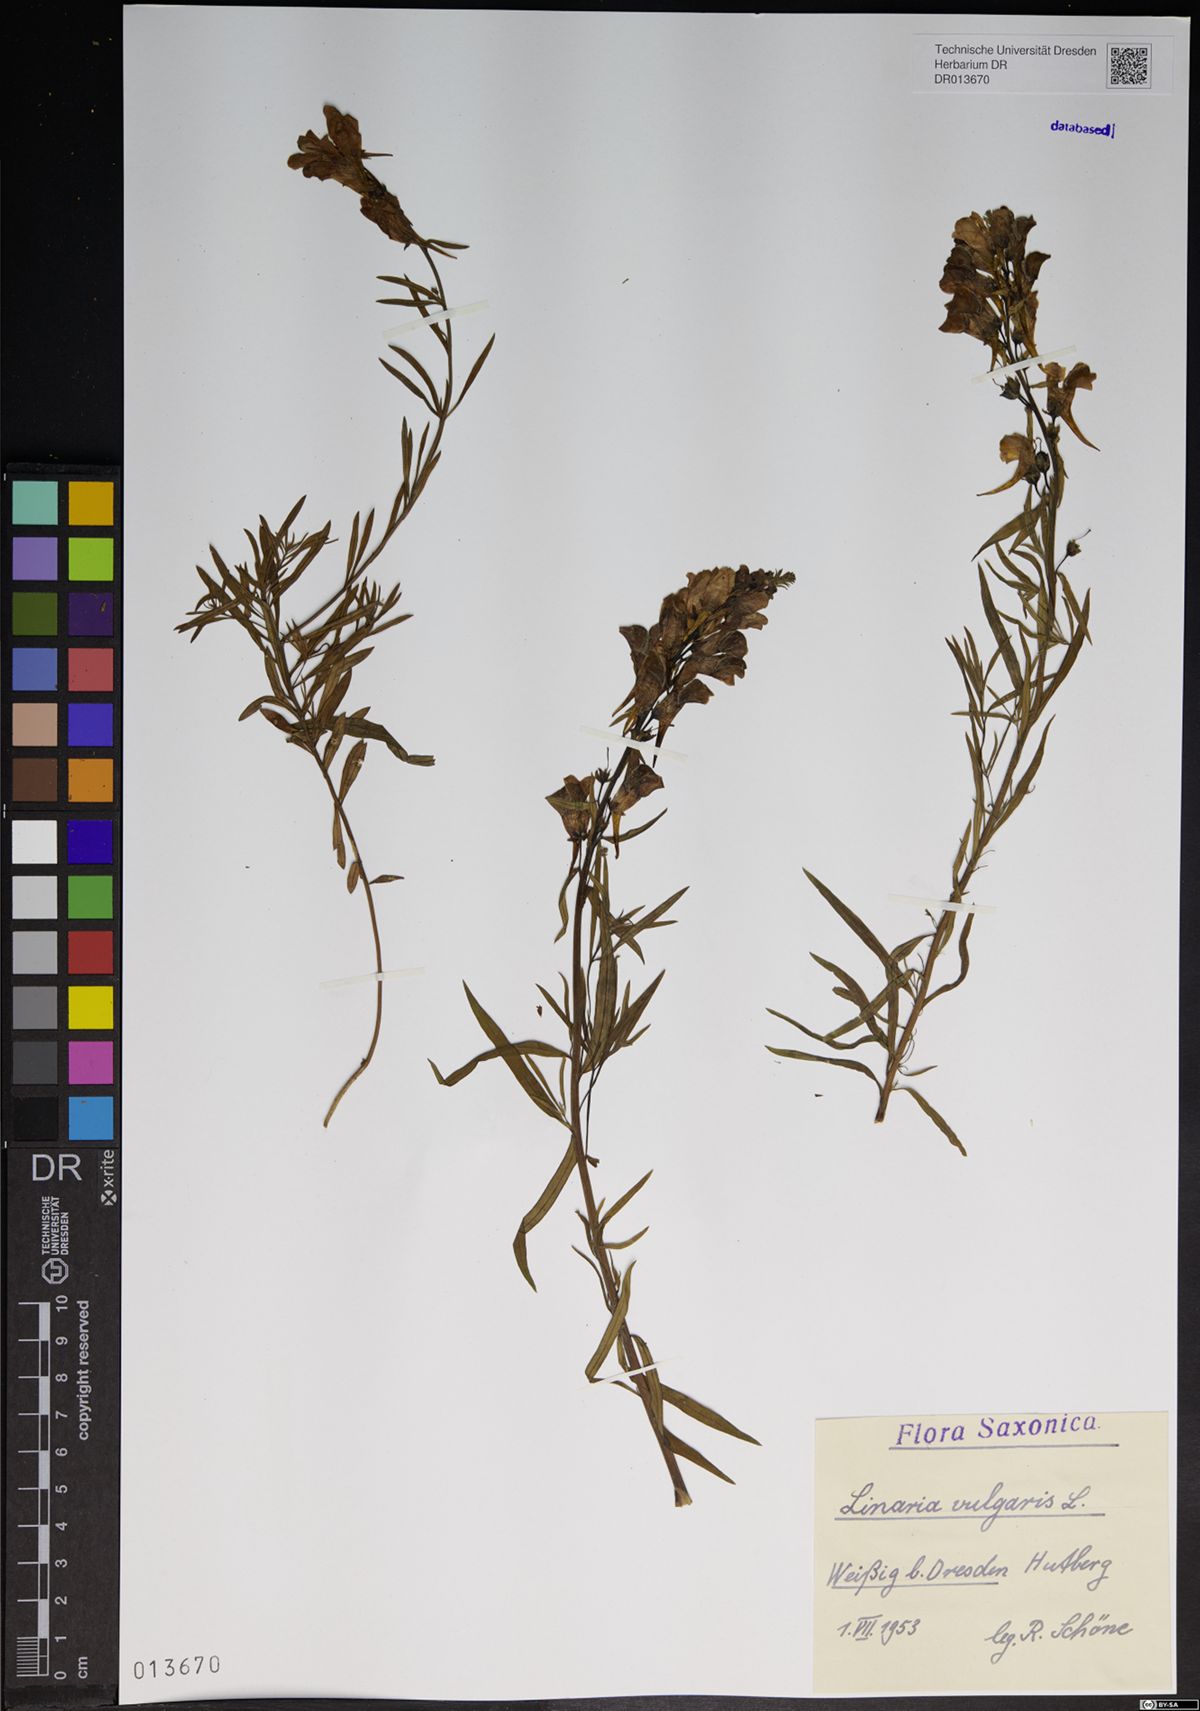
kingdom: Plantae
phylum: Tracheophyta
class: Magnoliopsida
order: Lamiales
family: Plantaginaceae
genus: Linaria
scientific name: Linaria vulgaris
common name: Butter and eggs
